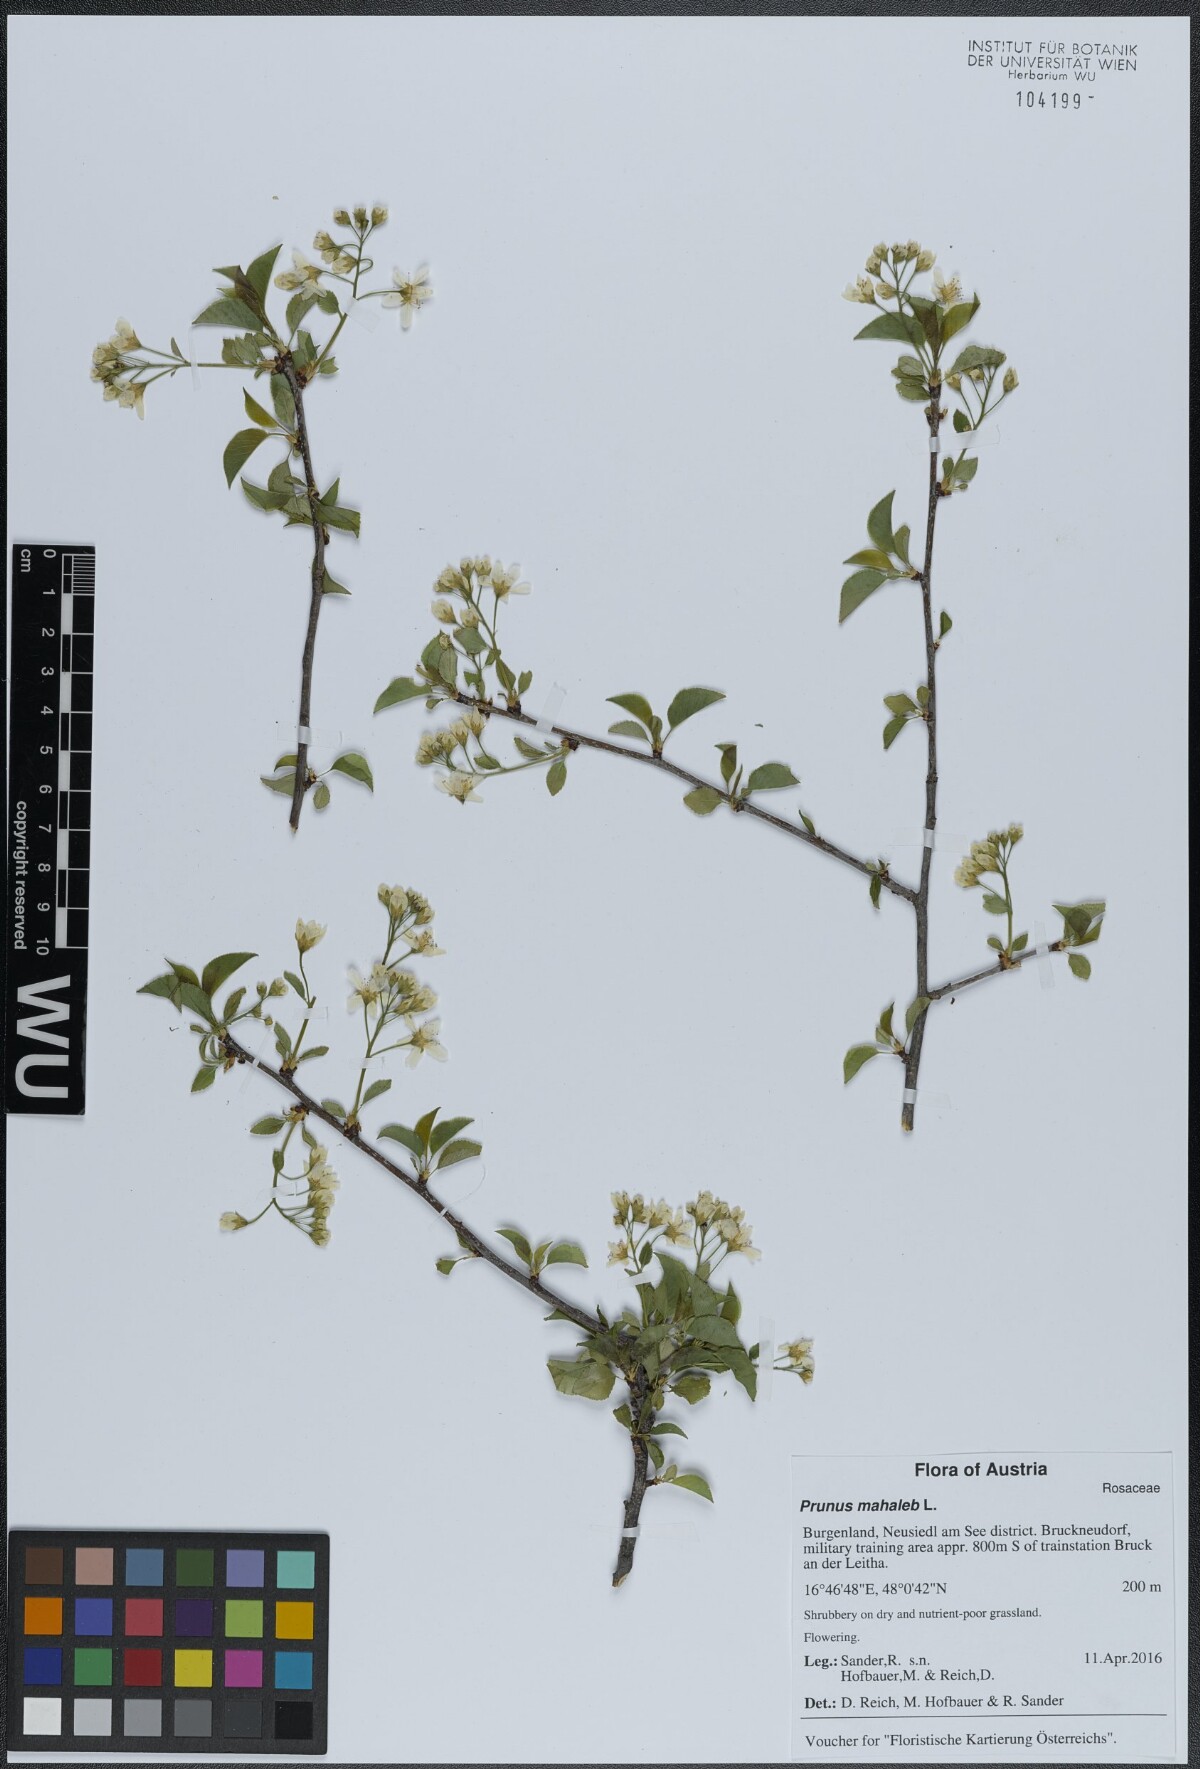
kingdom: Plantae
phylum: Tracheophyta
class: Magnoliopsida
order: Rosales
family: Rosaceae
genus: Prunus
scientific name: Prunus mahaleb
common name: Mahaleb cherry
